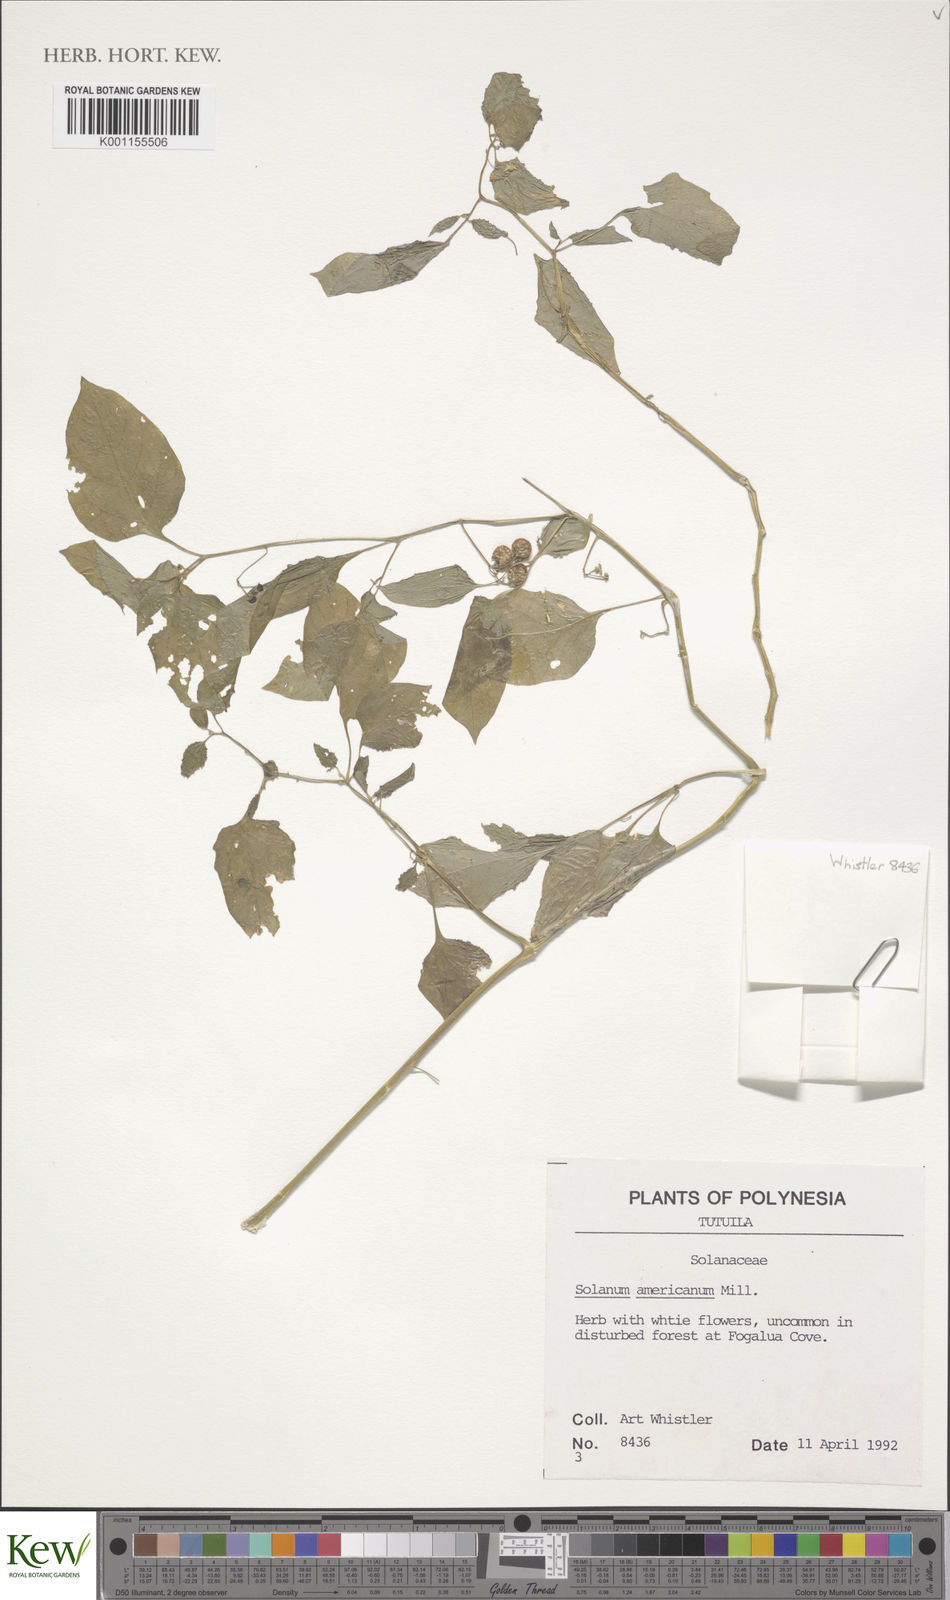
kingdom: Plantae
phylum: Tracheophyta
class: Magnoliopsida
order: Solanales
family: Solanaceae
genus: Solanum
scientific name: Solanum americanum
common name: American black nightshade
